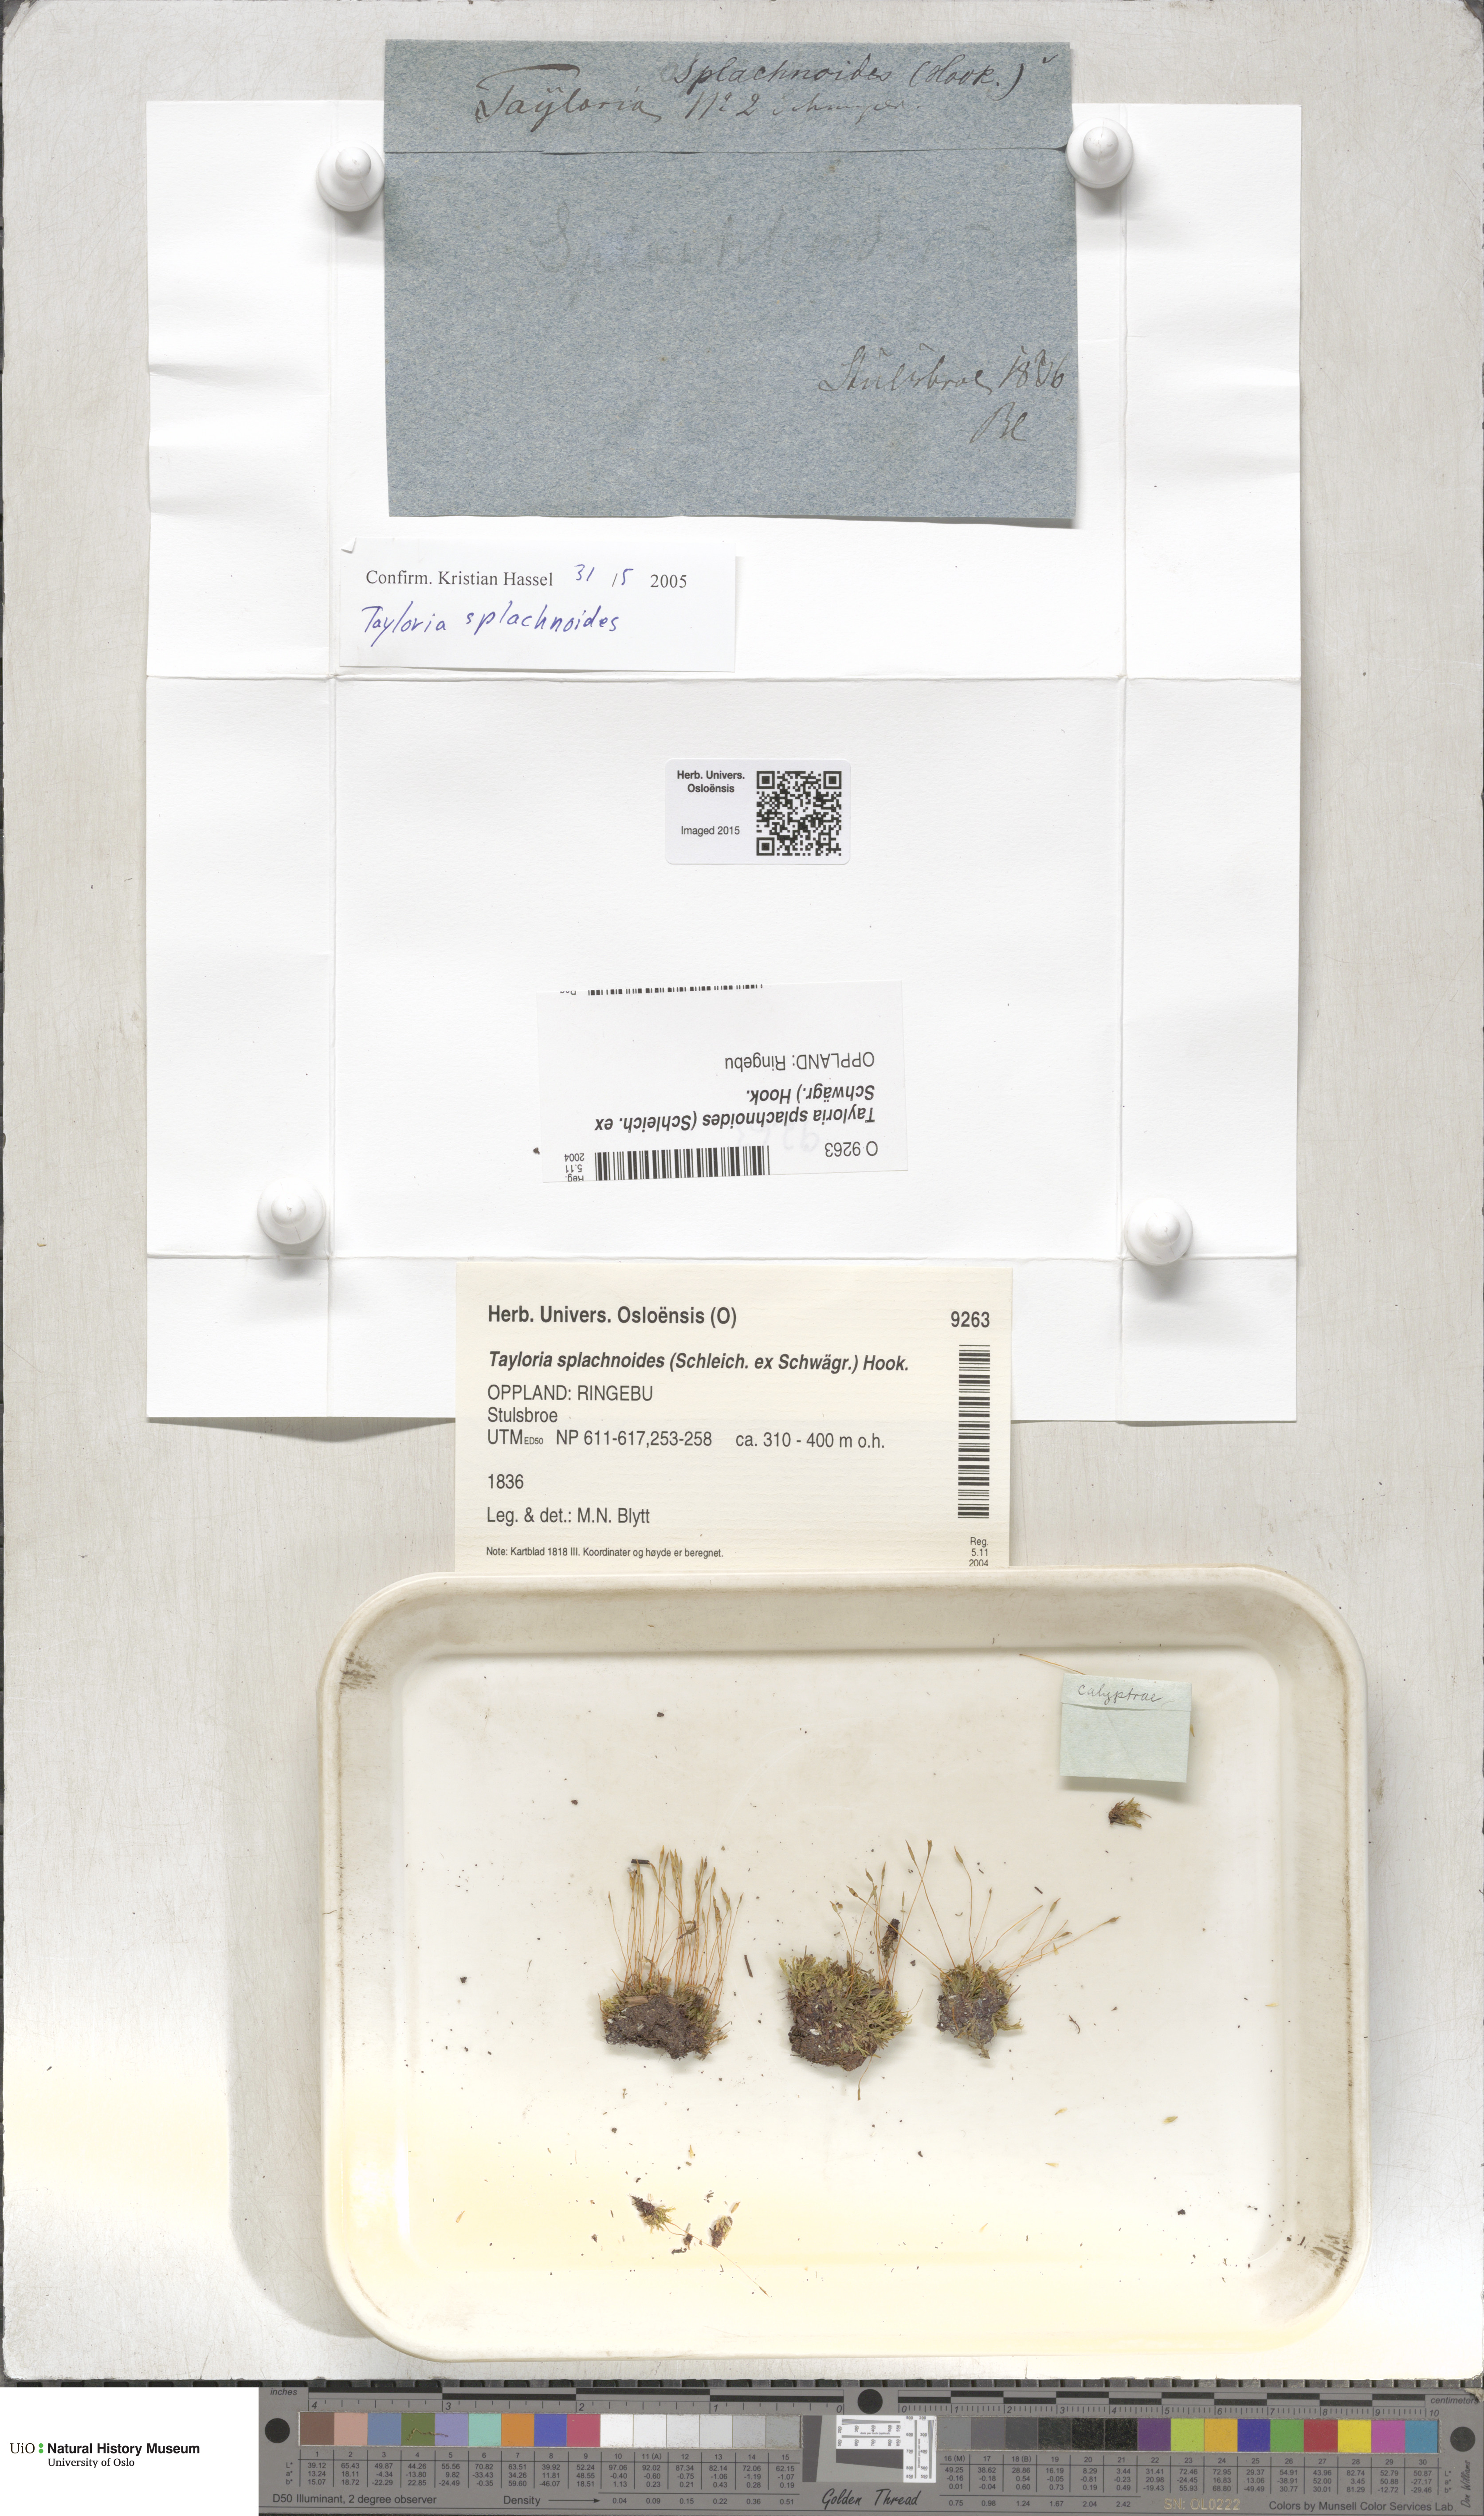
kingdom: Plantae
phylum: Bryophyta
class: Bryopsida
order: Splachnales
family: Splachnaceae
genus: Tayloria
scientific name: Tayloria splachnoides
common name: Splachnoid trumpet moss
